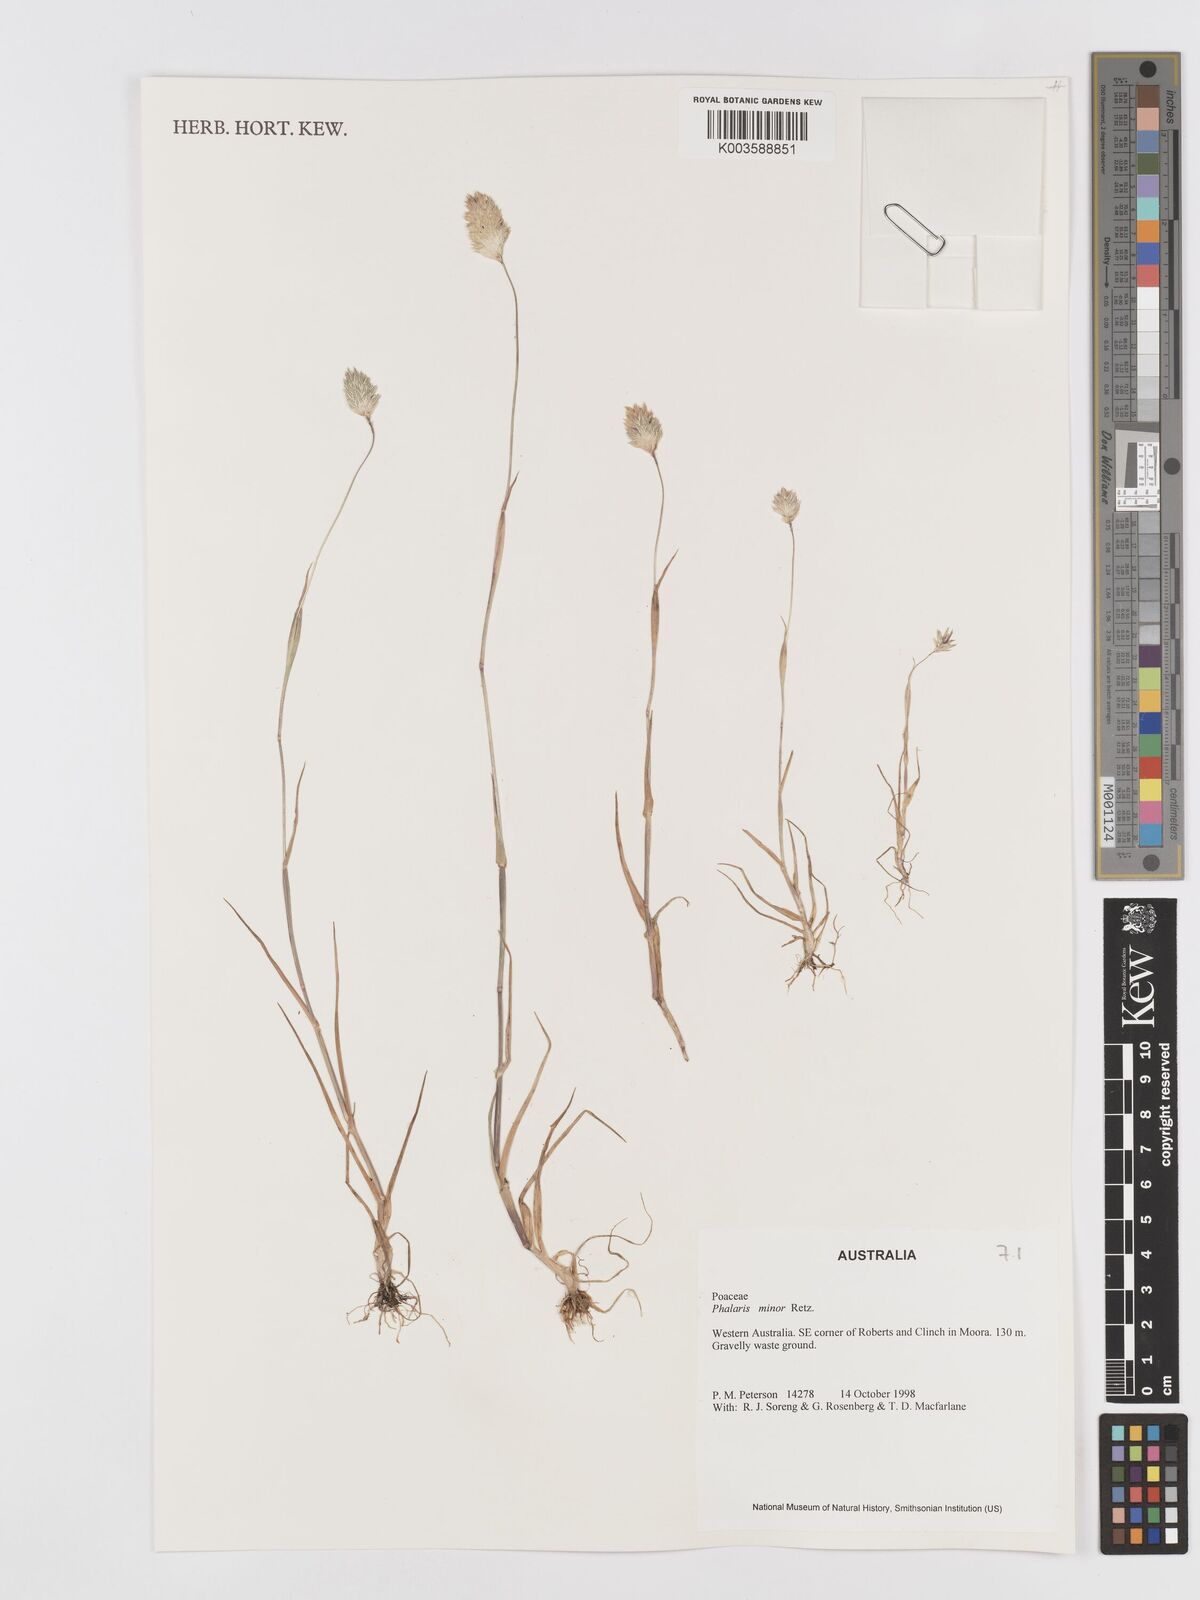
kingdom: Plantae
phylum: Tracheophyta
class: Liliopsida
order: Poales
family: Poaceae
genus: Phalaris
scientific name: Phalaris minor
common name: Littleseed canarygrass
